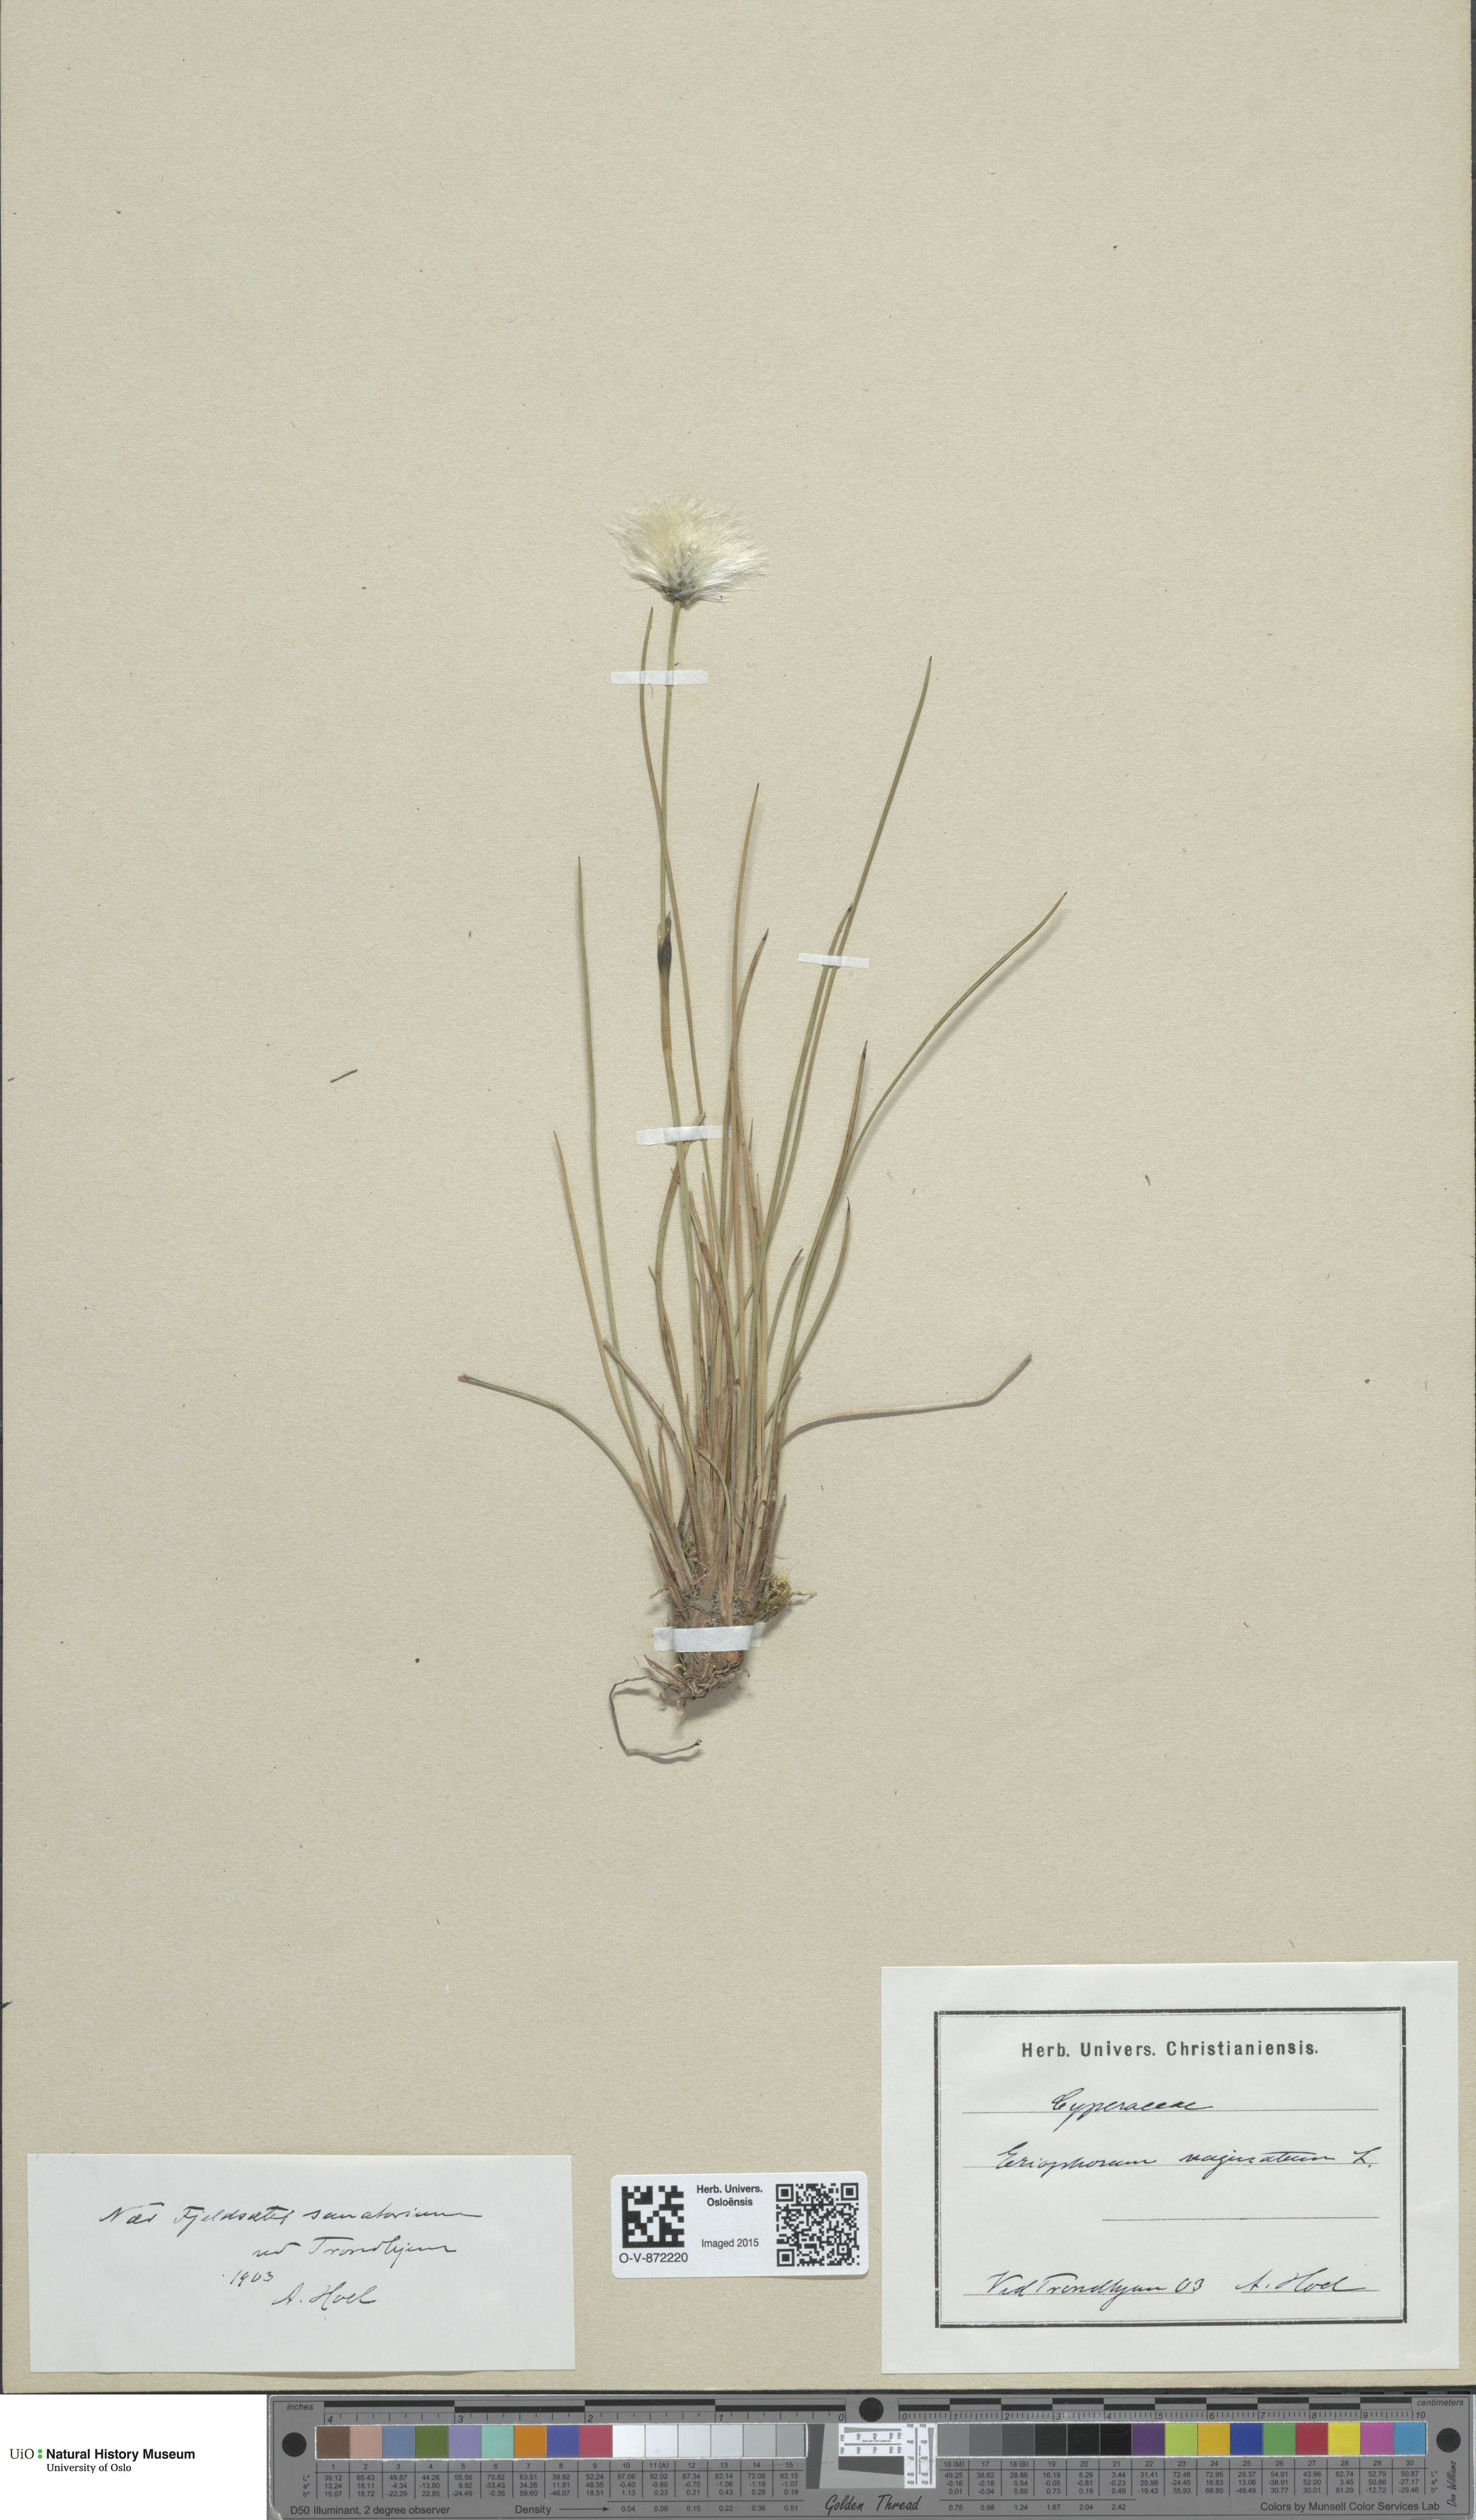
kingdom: Plantae
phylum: Tracheophyta
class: Liliopsida
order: Poales
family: Cyperaceae
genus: Eriophorum
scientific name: Eriophorum vaginatum
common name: Hare's-tail cottongrass
